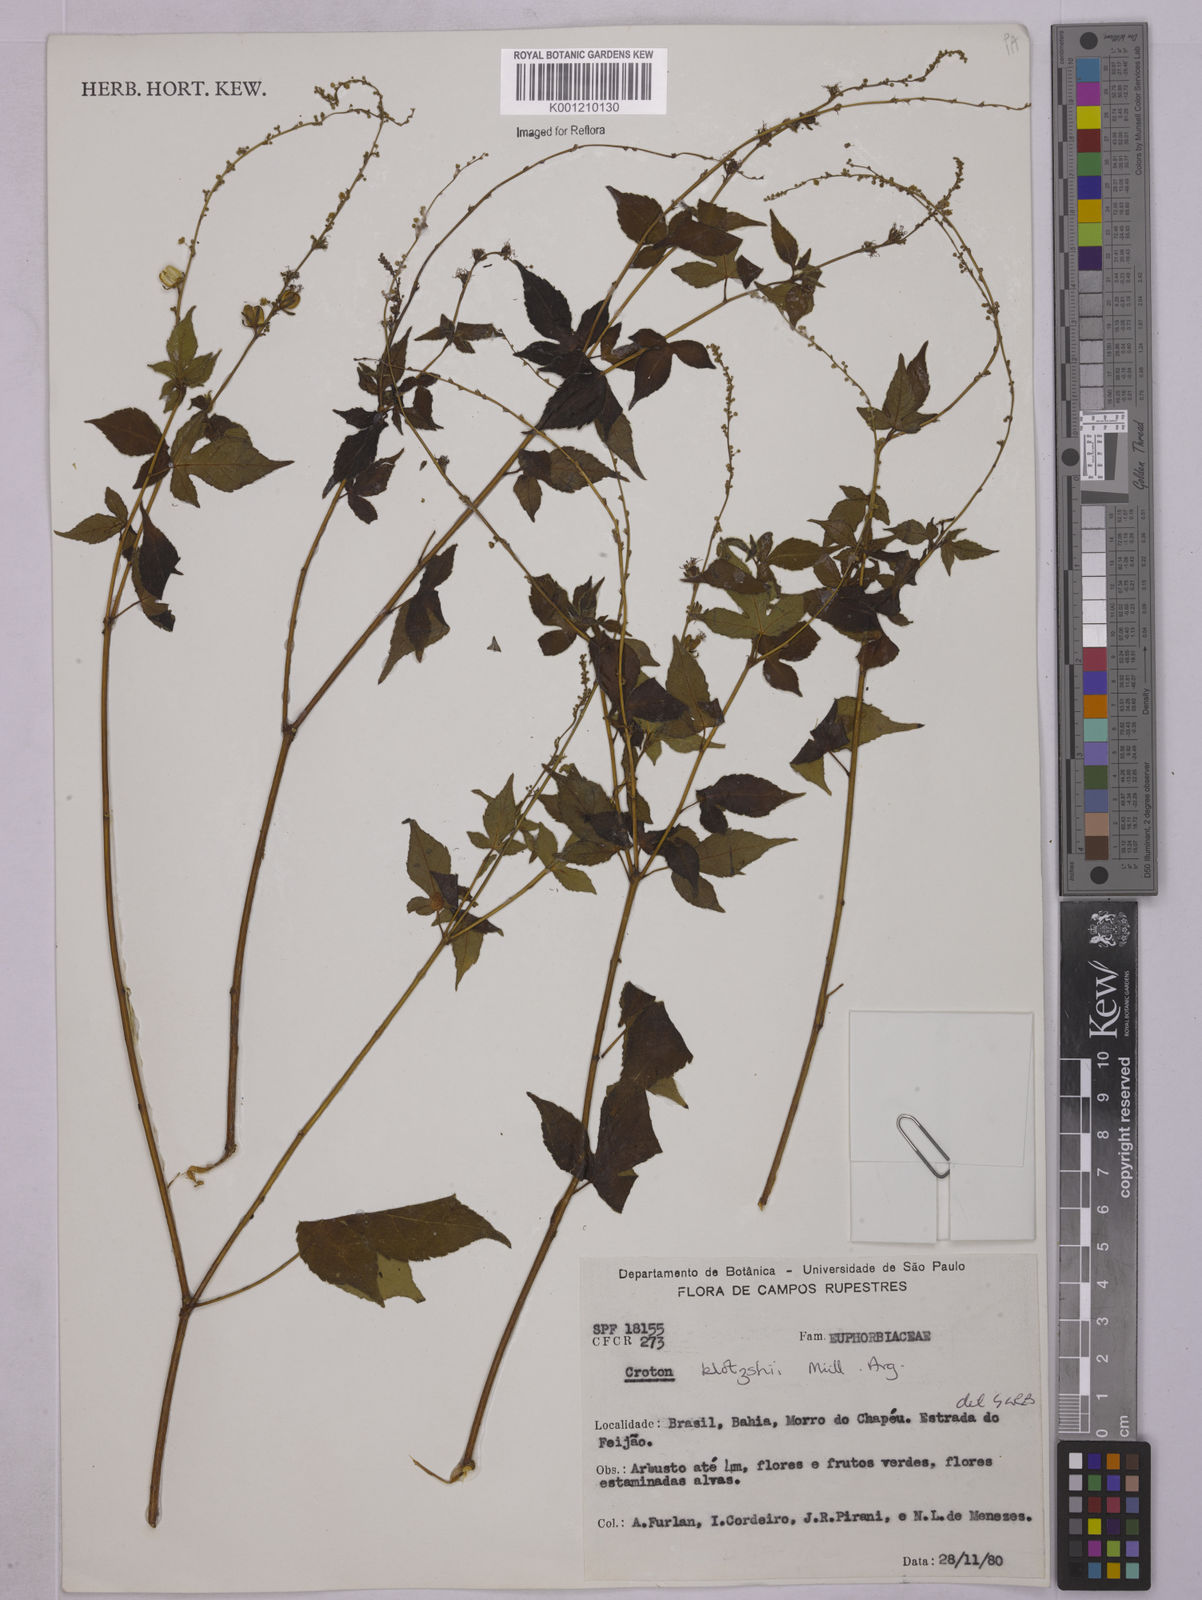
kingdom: Plantae
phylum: Tracheophyta
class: Magnoliopsida
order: Malpighiales
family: Euphorbiaceae
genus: Astraea
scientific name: Astraea macroura
